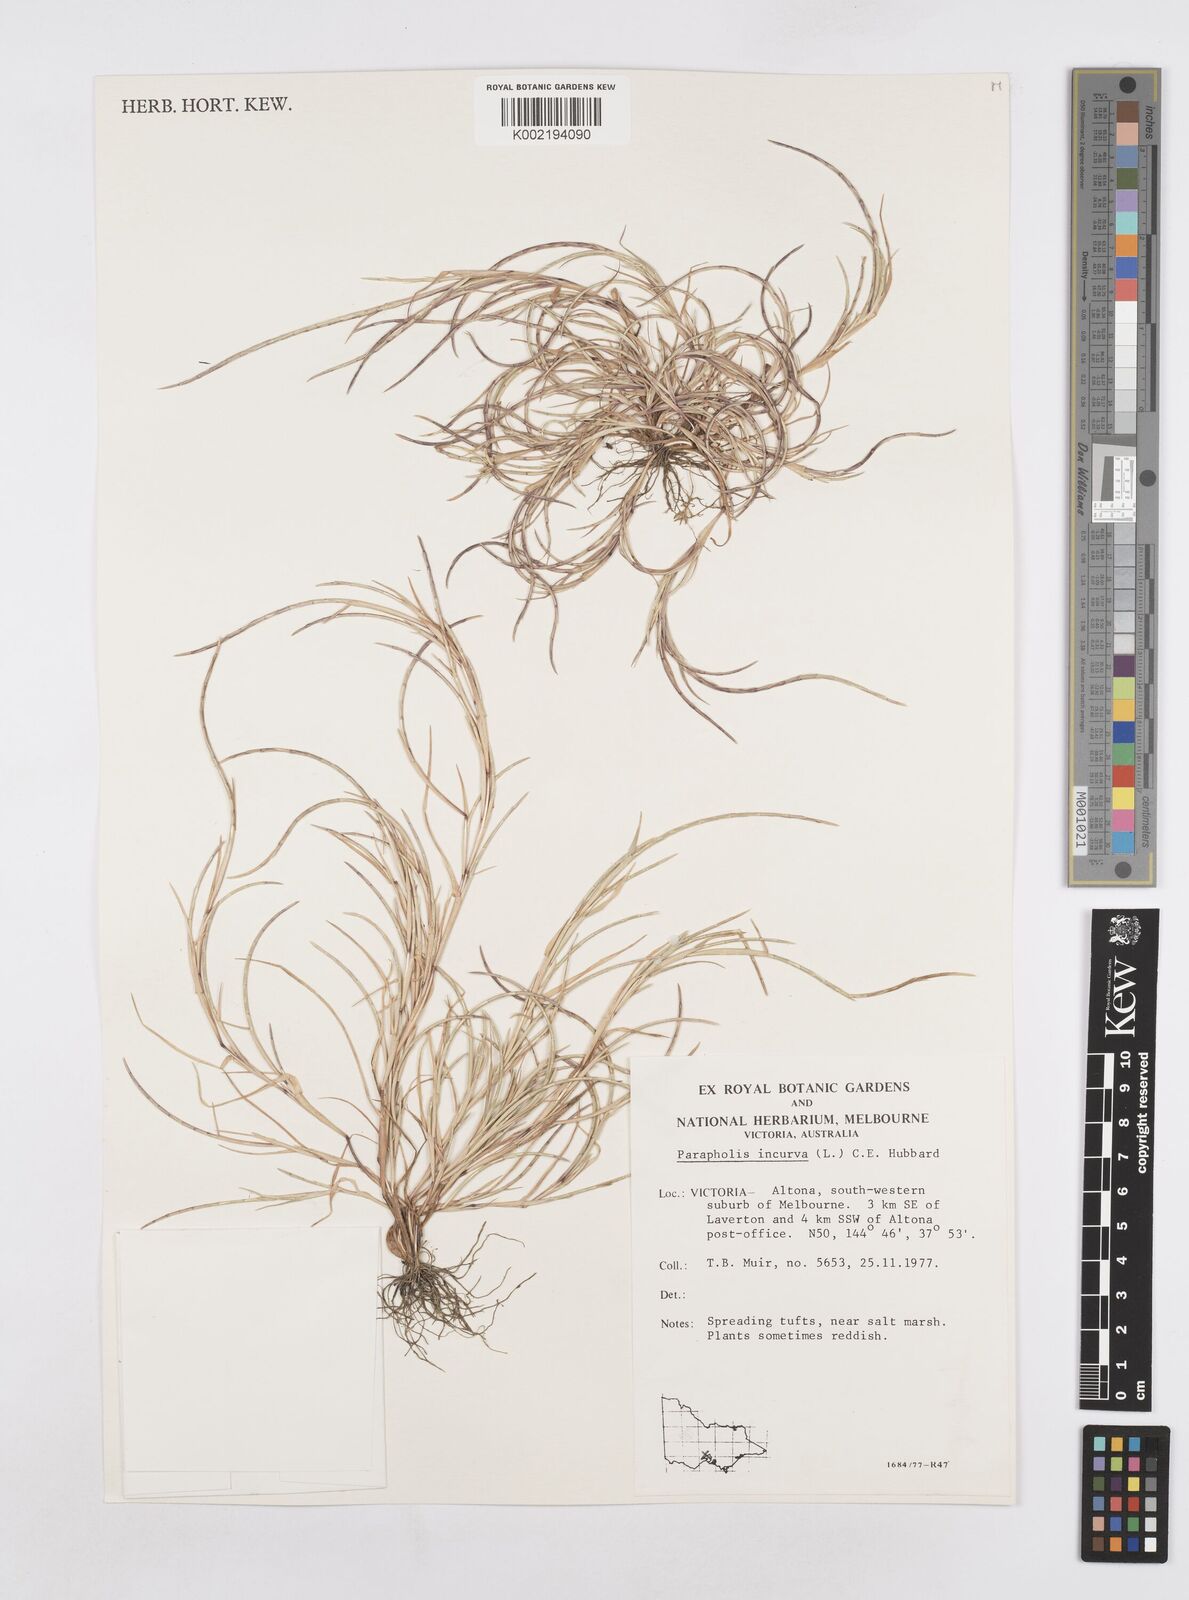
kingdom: Plantae
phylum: Tracheophyta
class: Liliopsida
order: Poales
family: Poaceae
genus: Parapholis
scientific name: Parapholis strigosa
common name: Hard-grass
